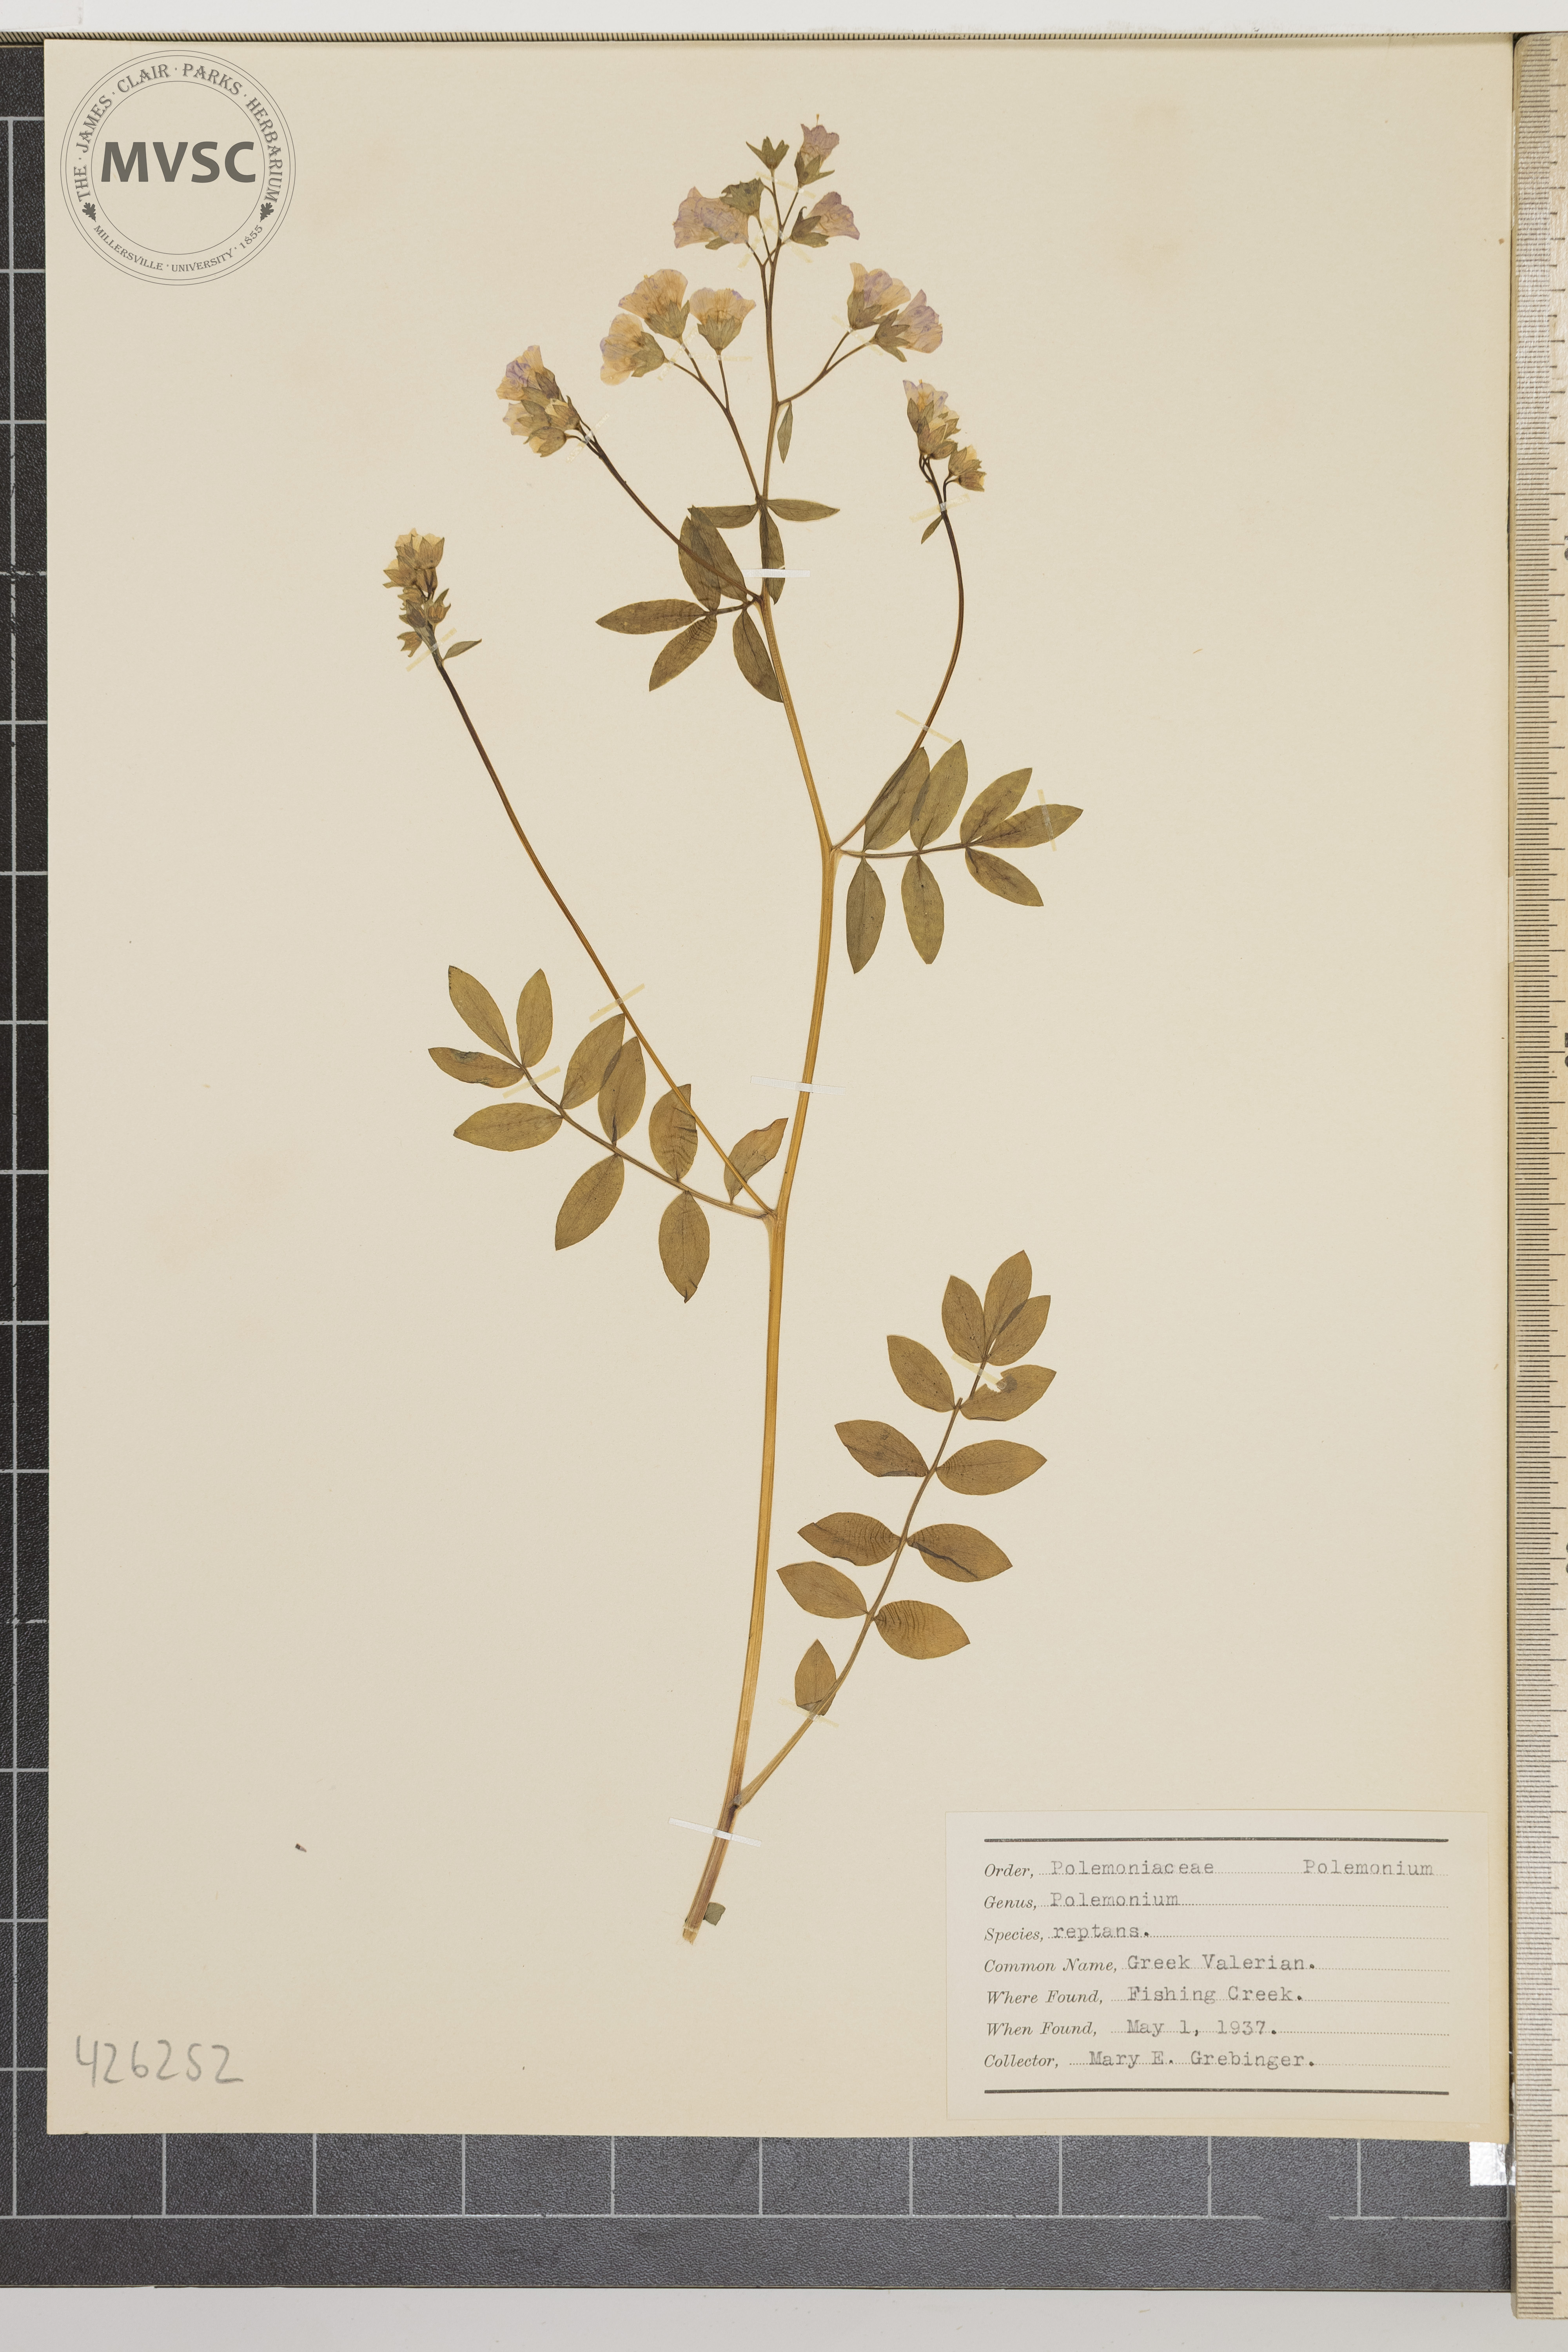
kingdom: Plantae
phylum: Tracheophyta
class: Magnoliopsida
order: Ericales
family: Polemoniaceae
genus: Polemonium
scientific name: Polemonium reptans
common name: Greek Valerian
